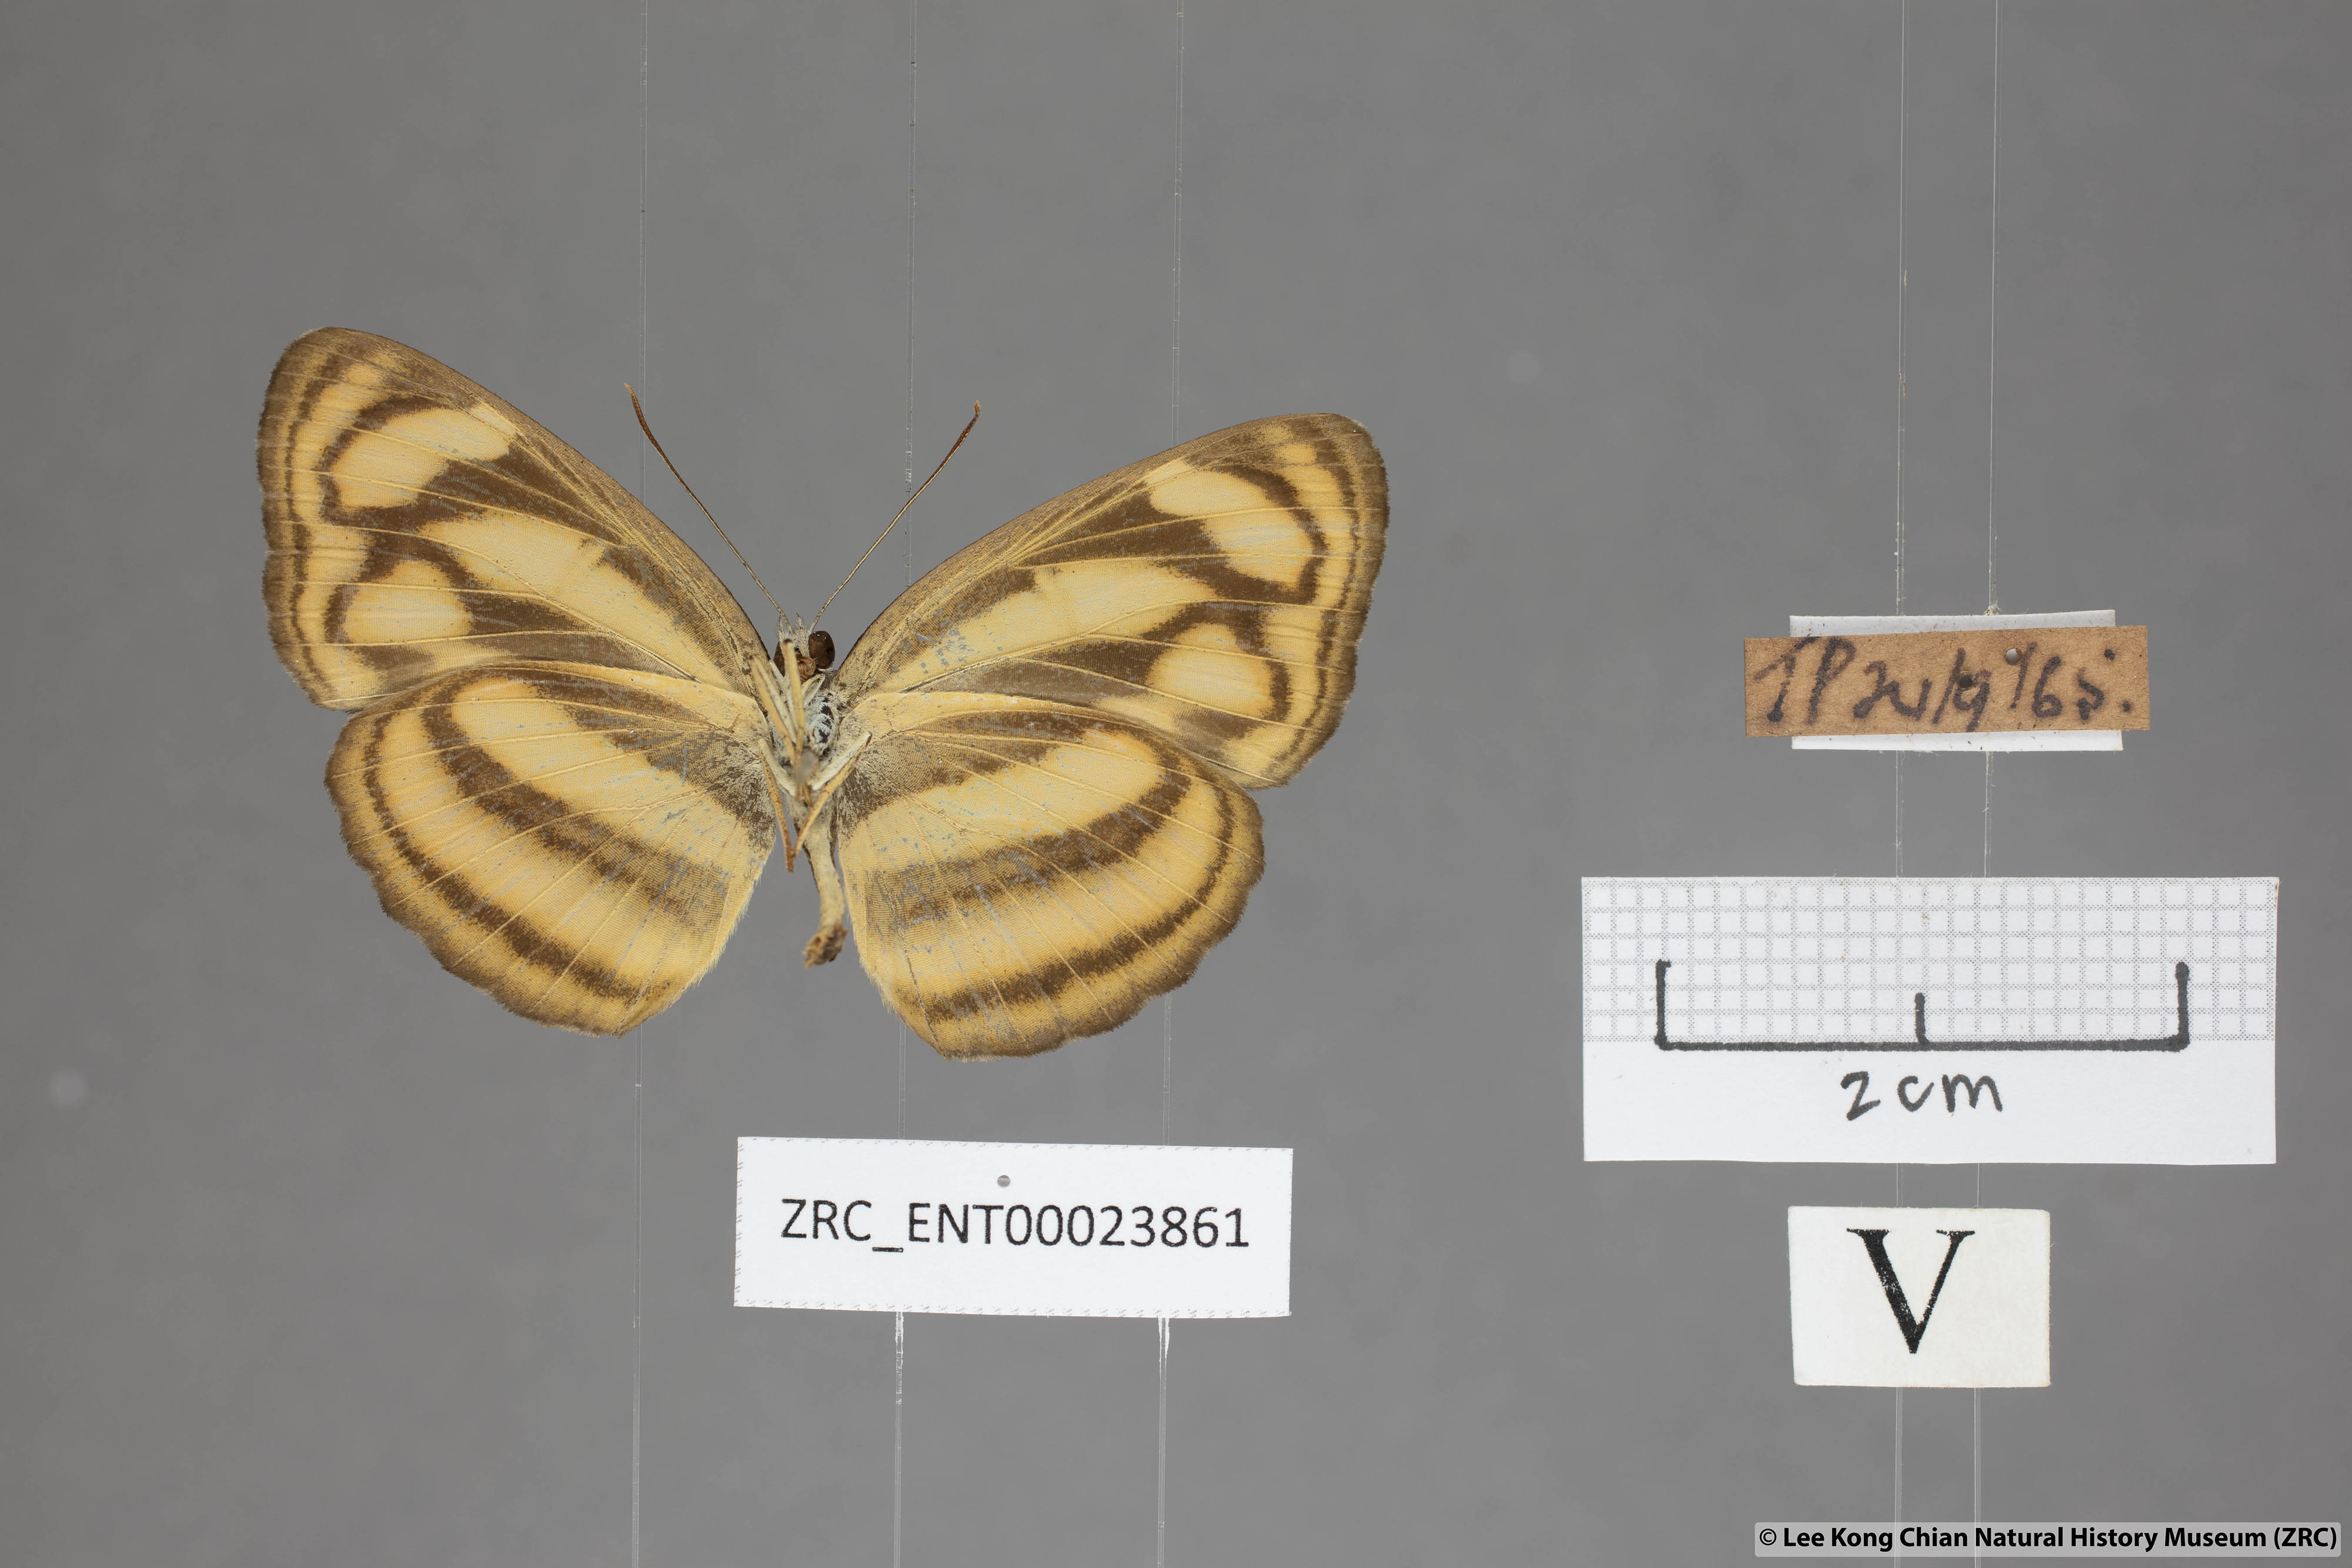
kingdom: Animalia
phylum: Arthropoda
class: Insecta
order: Lepidoptera
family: Nymphalidae
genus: Lasippa
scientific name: Lasippa tiga
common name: Malayan lascar
